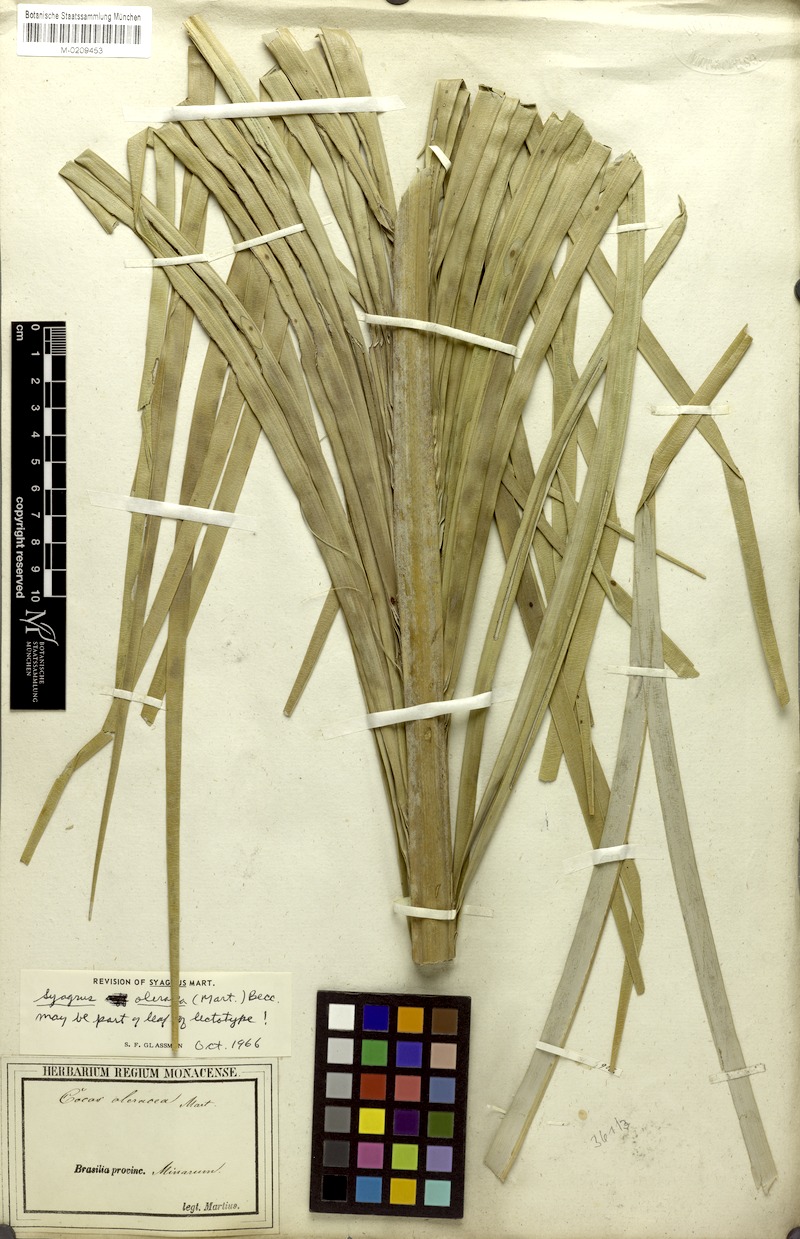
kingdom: Plantae
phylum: Tracheophyta
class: Liliopsida
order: Arecales
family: Arecaceae
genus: Syagrus
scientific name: Syagrus oleracea
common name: Catole palm
